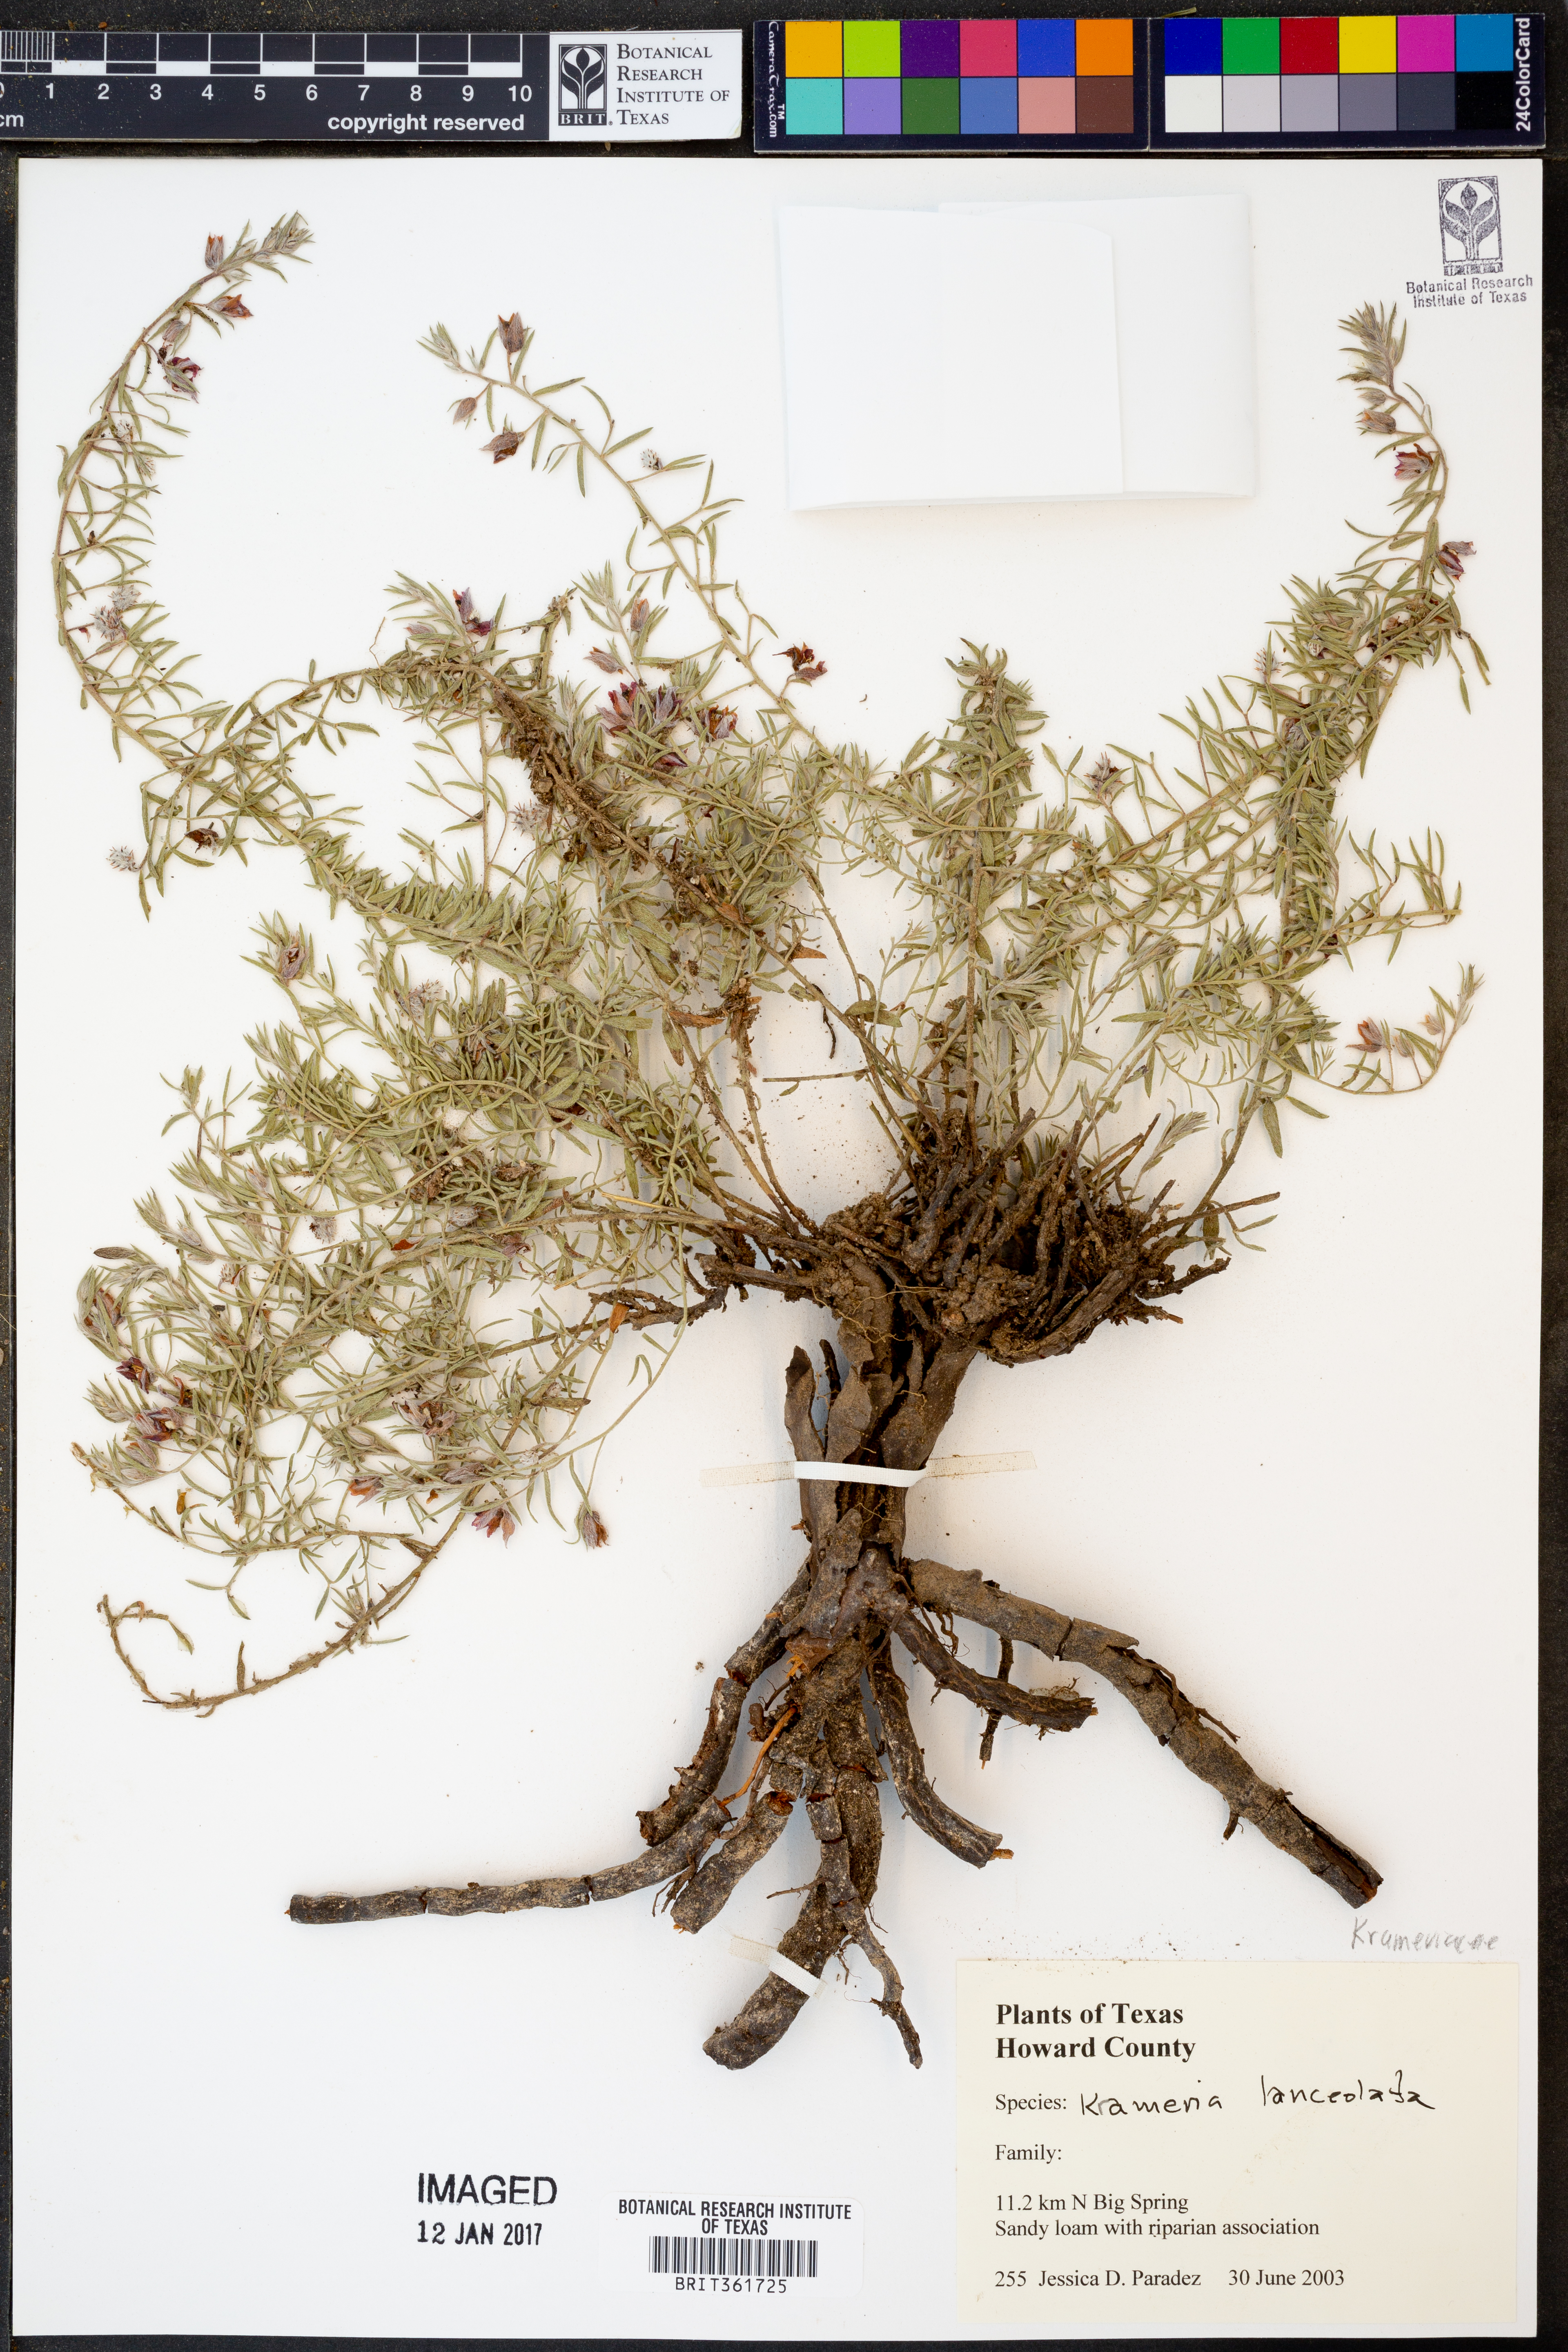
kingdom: Plantae
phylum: Tracheophyta
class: Magnoliopsida
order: Zygophyllales
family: Krameriaceae
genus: Krameria
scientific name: Krameria lanceolata
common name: Ratany
